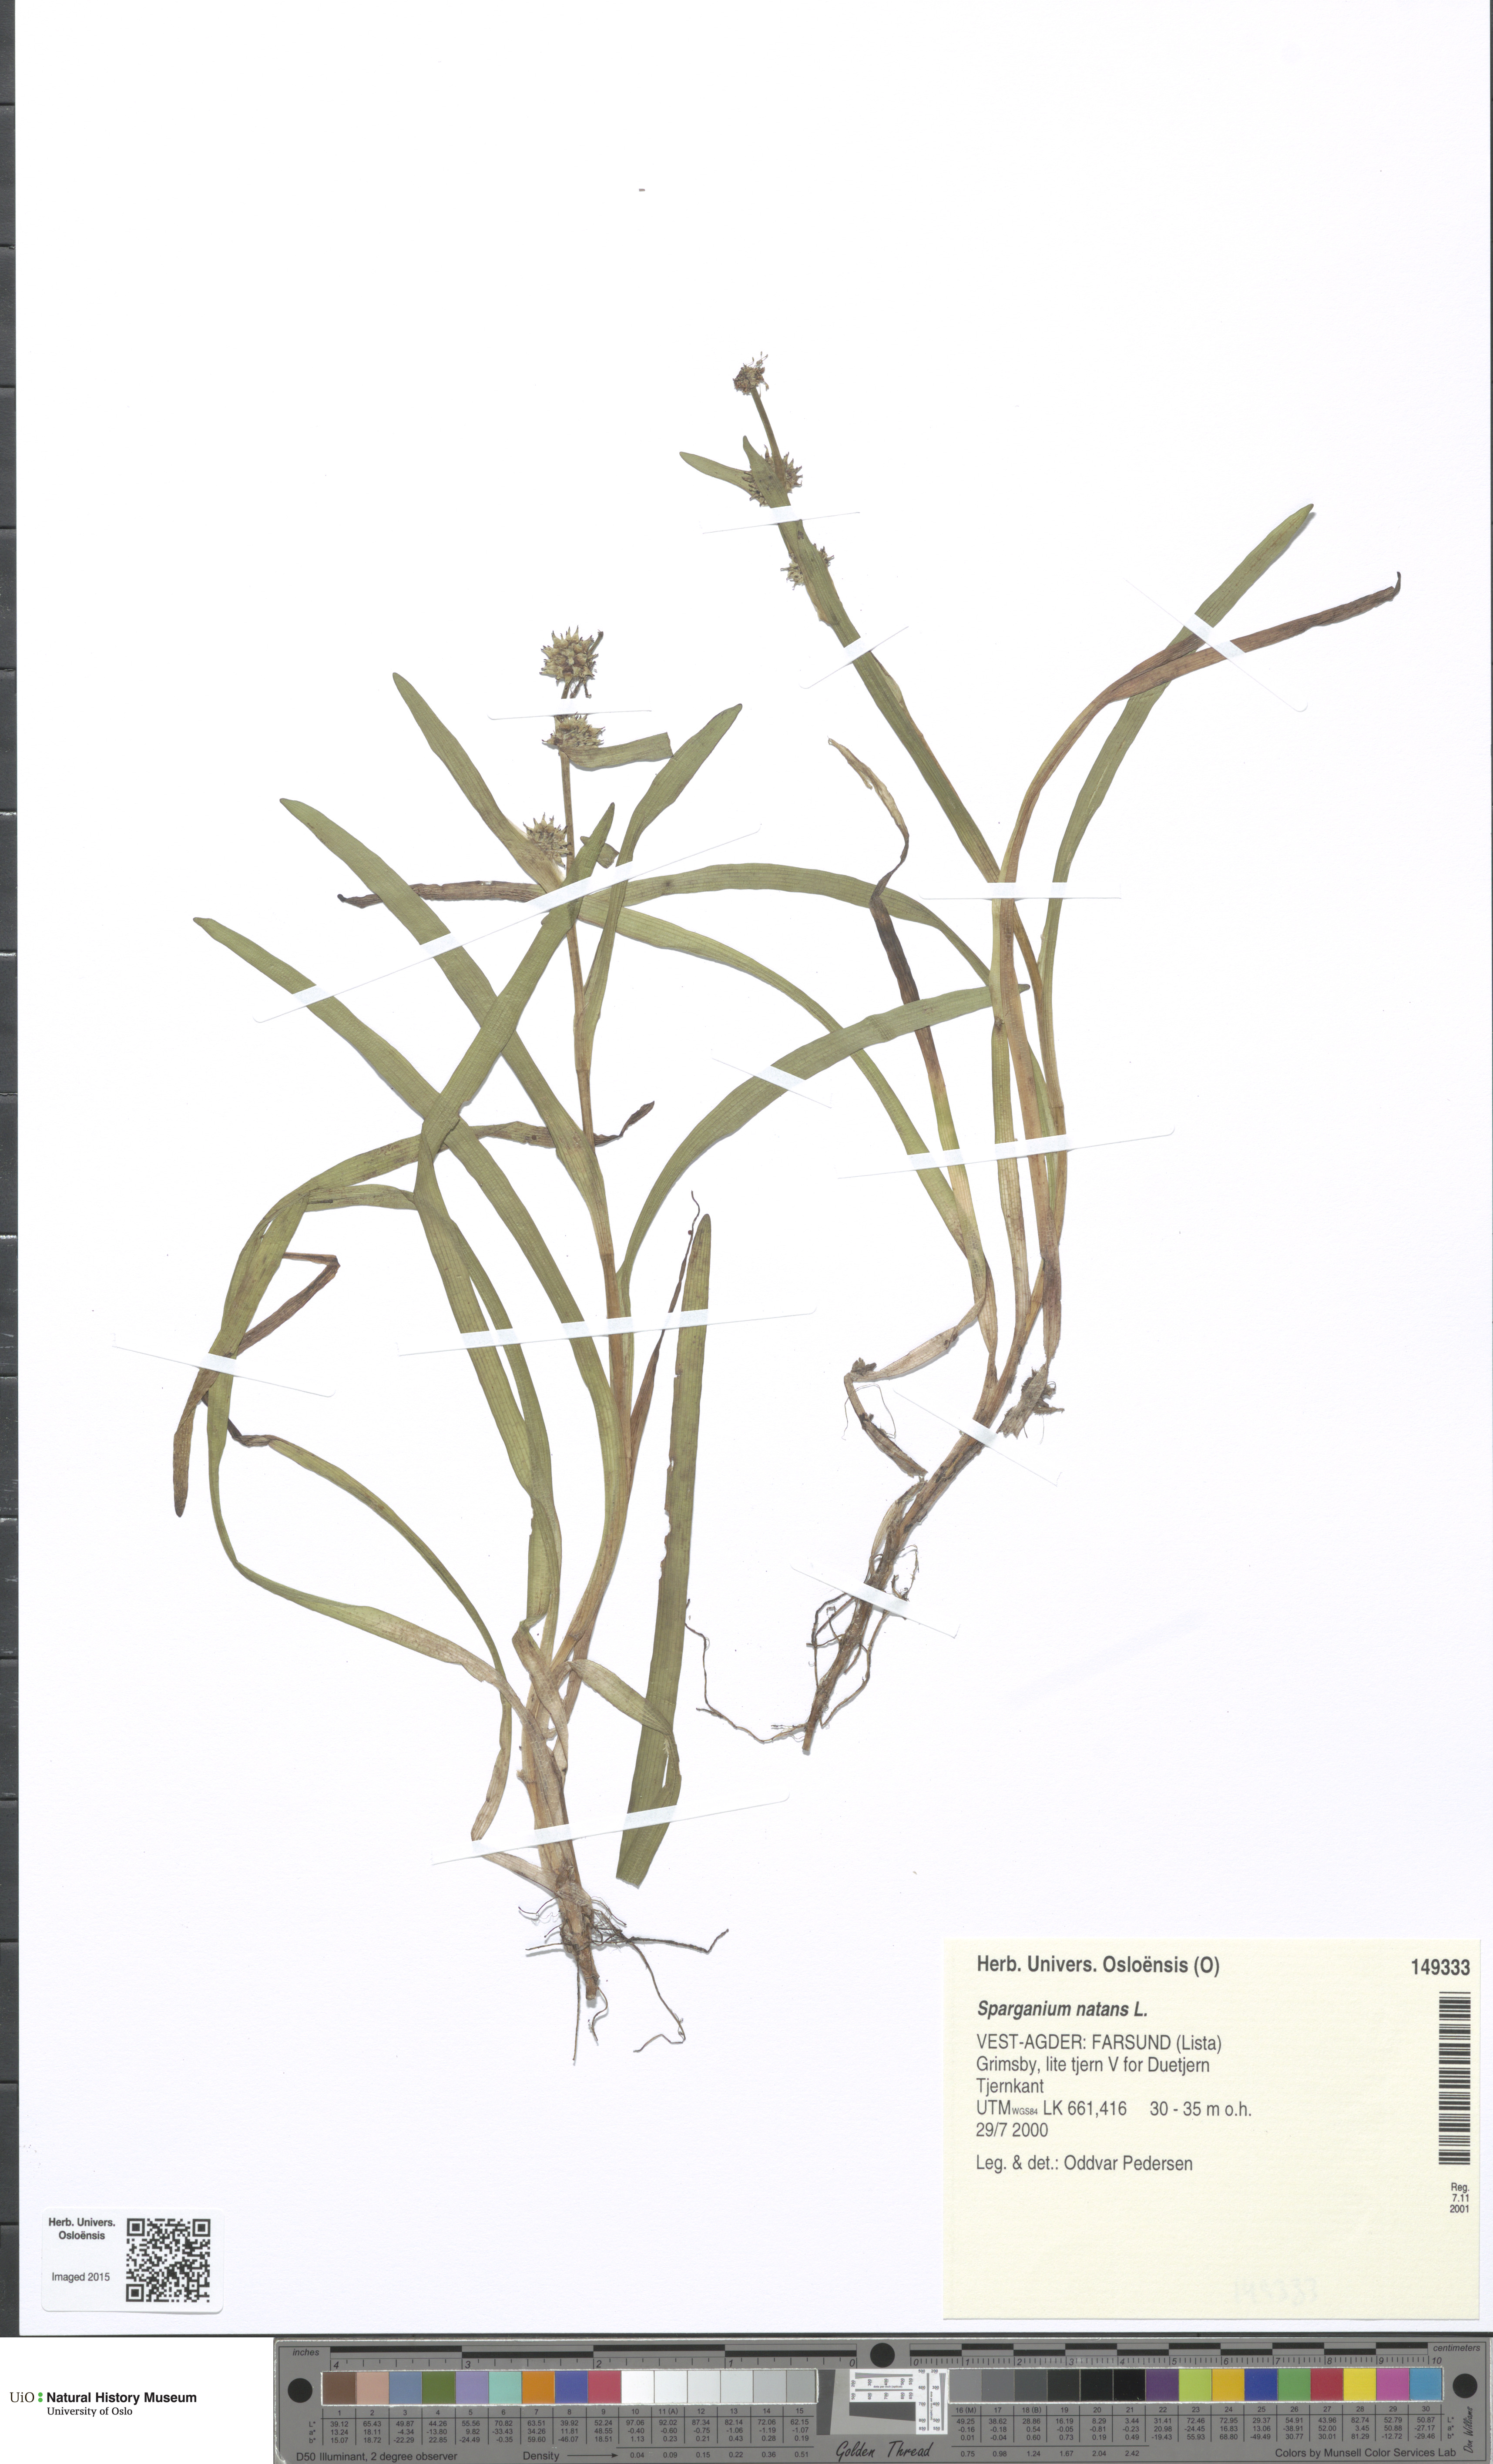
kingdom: Plantae
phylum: Tracheophyta
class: Liliopsida
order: Poales
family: Typhaceae
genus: Sparganium
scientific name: Sparganium natans
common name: Least bur-reed
